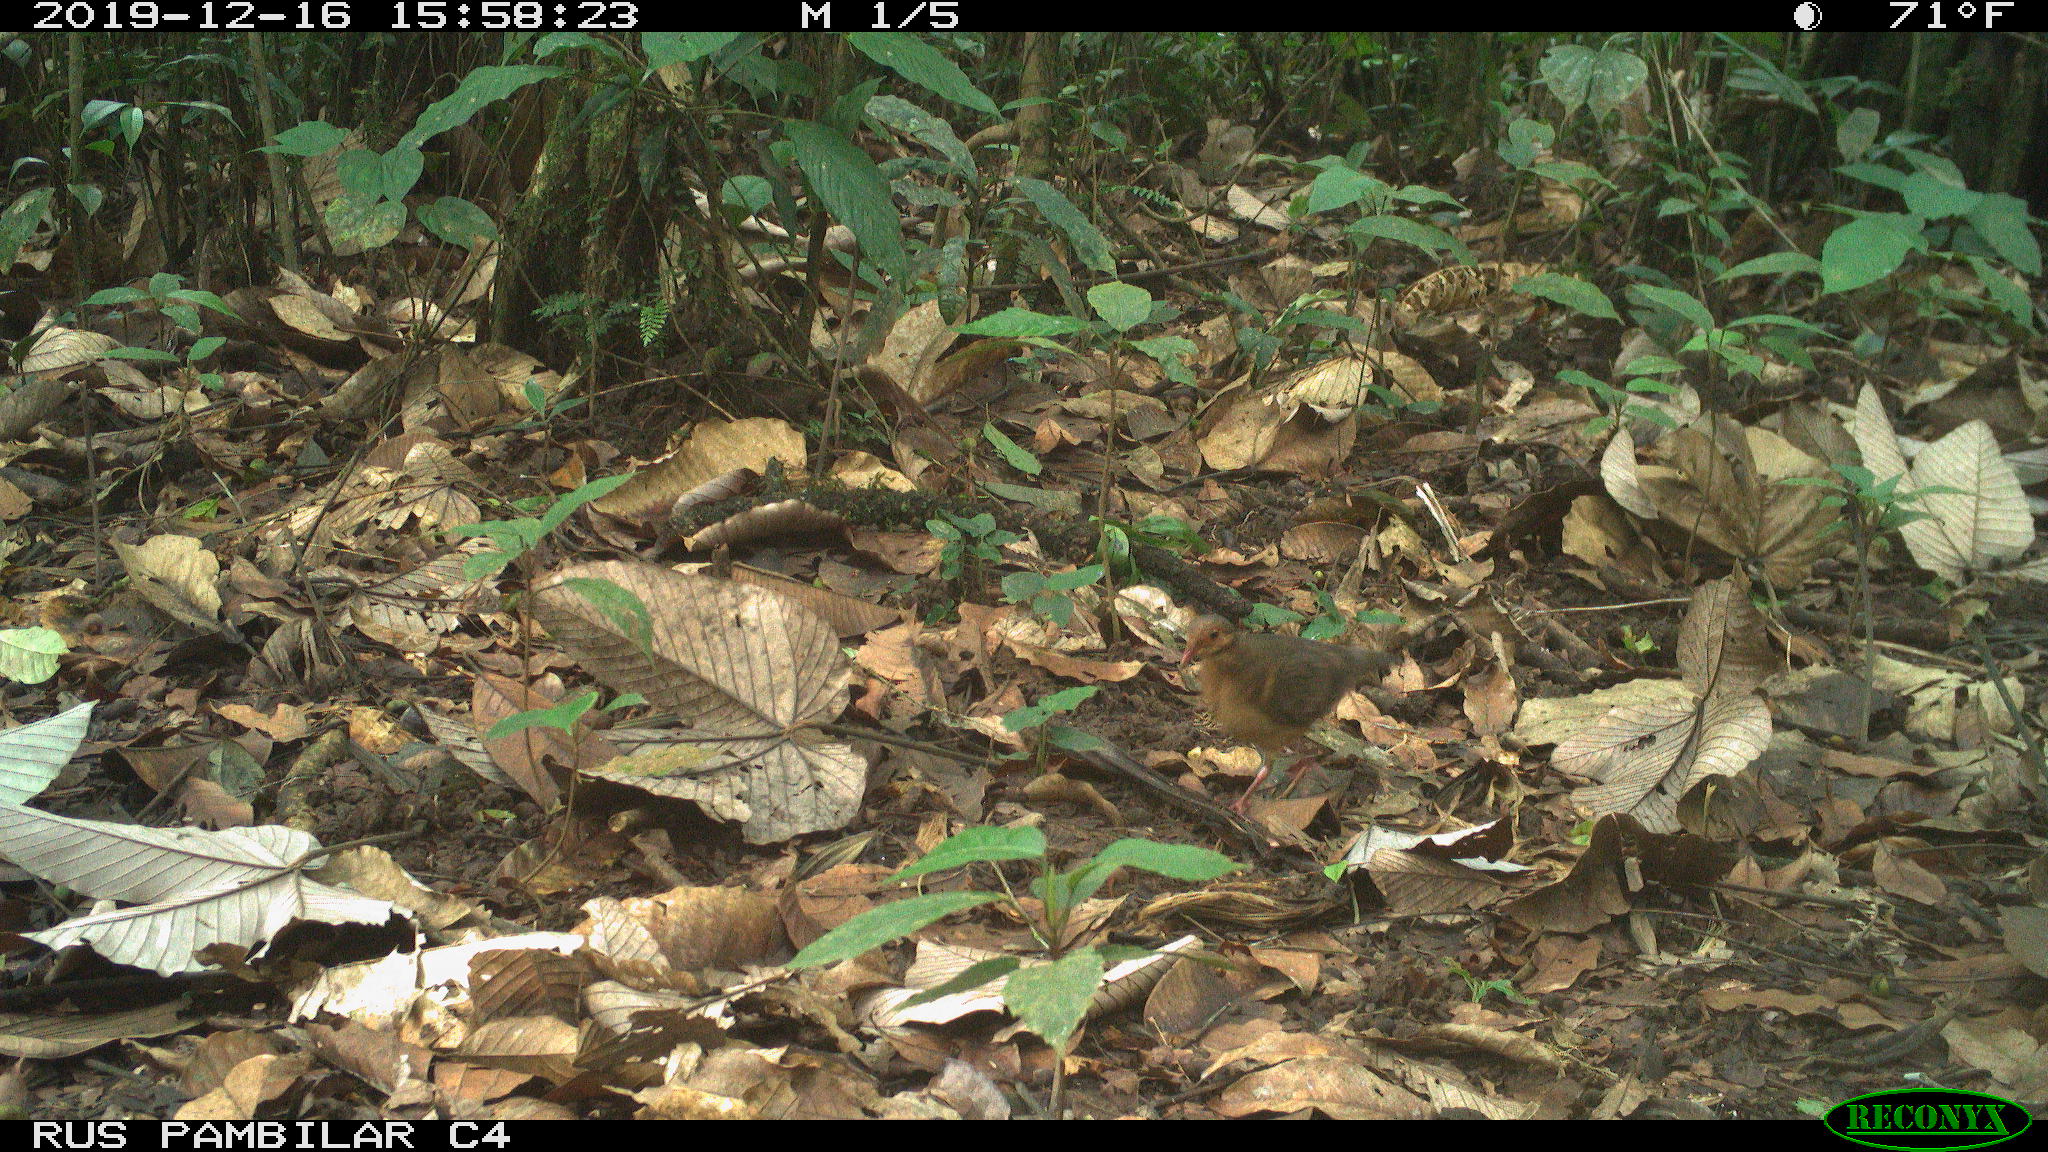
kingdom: Animalia
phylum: Chordata
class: Aves
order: Columbiformes
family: Columbidae
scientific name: Columbidae
